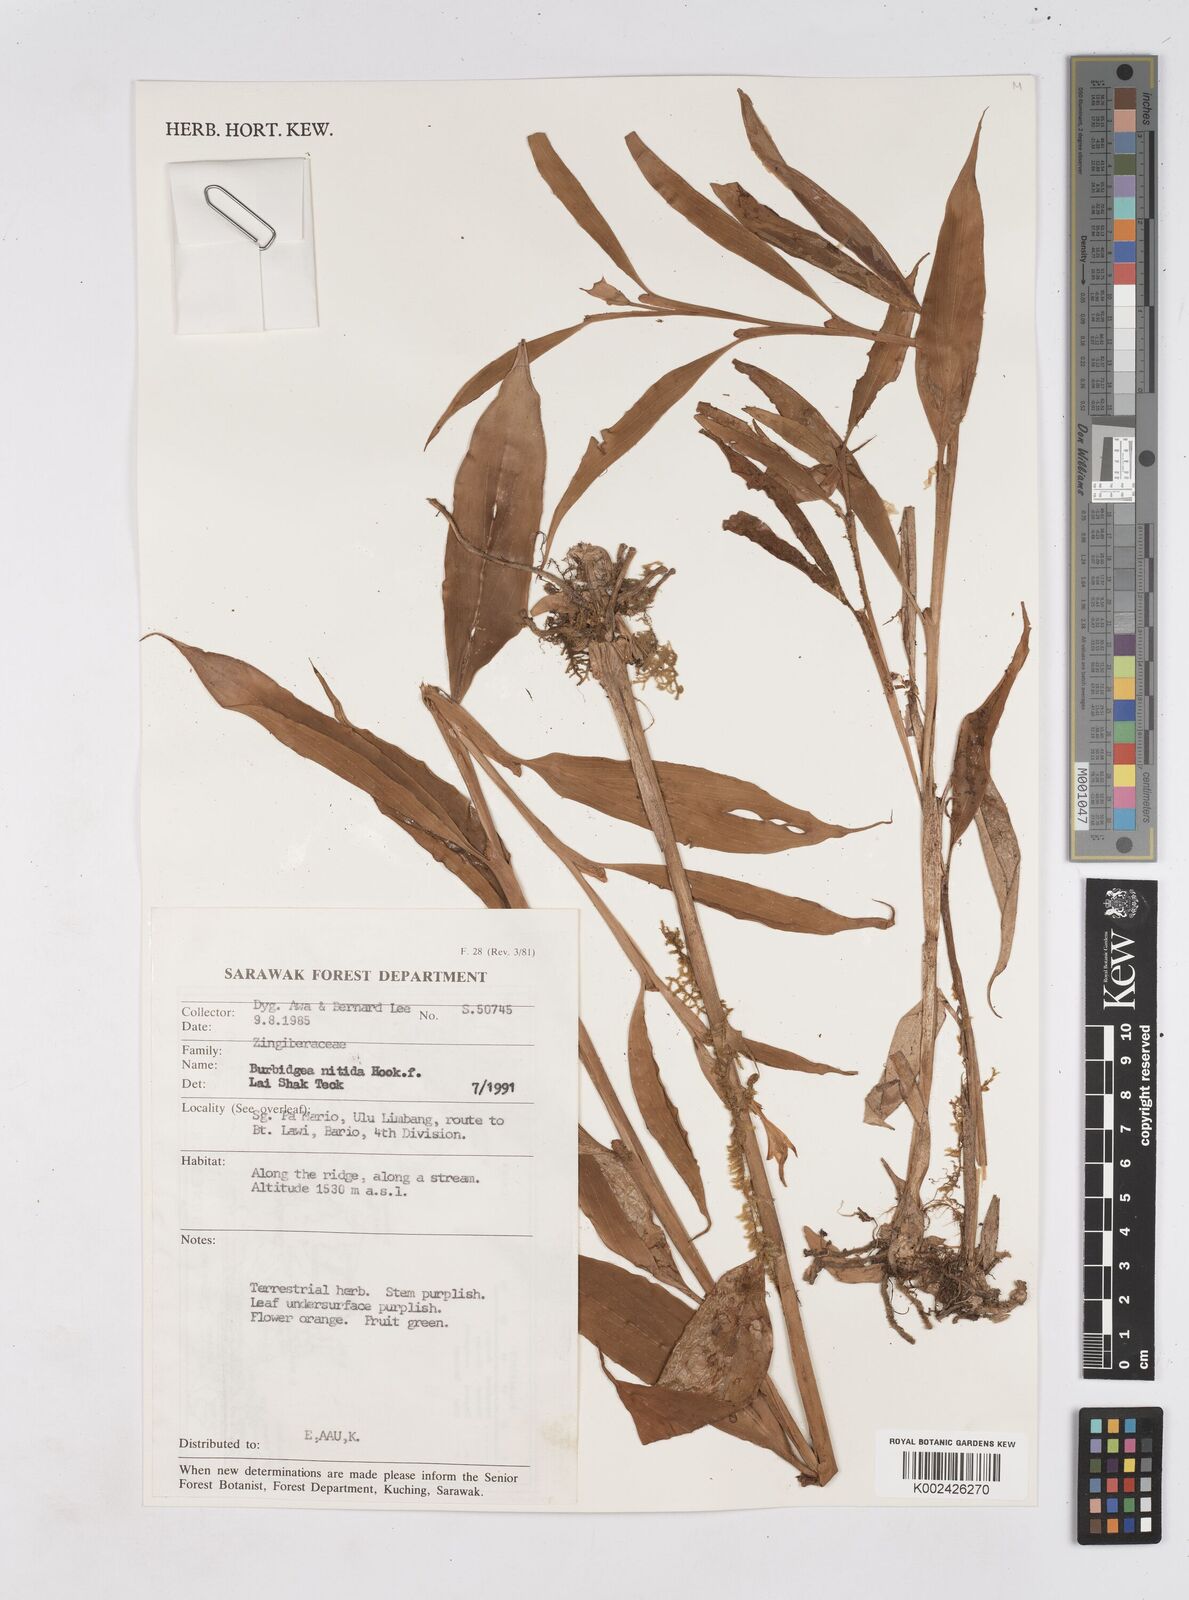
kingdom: Plantae
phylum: Tracheophyta
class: Liliopsida
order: Zingiberales
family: Zingiberaceae
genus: Burbidgea
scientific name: Burbidgea nitida
